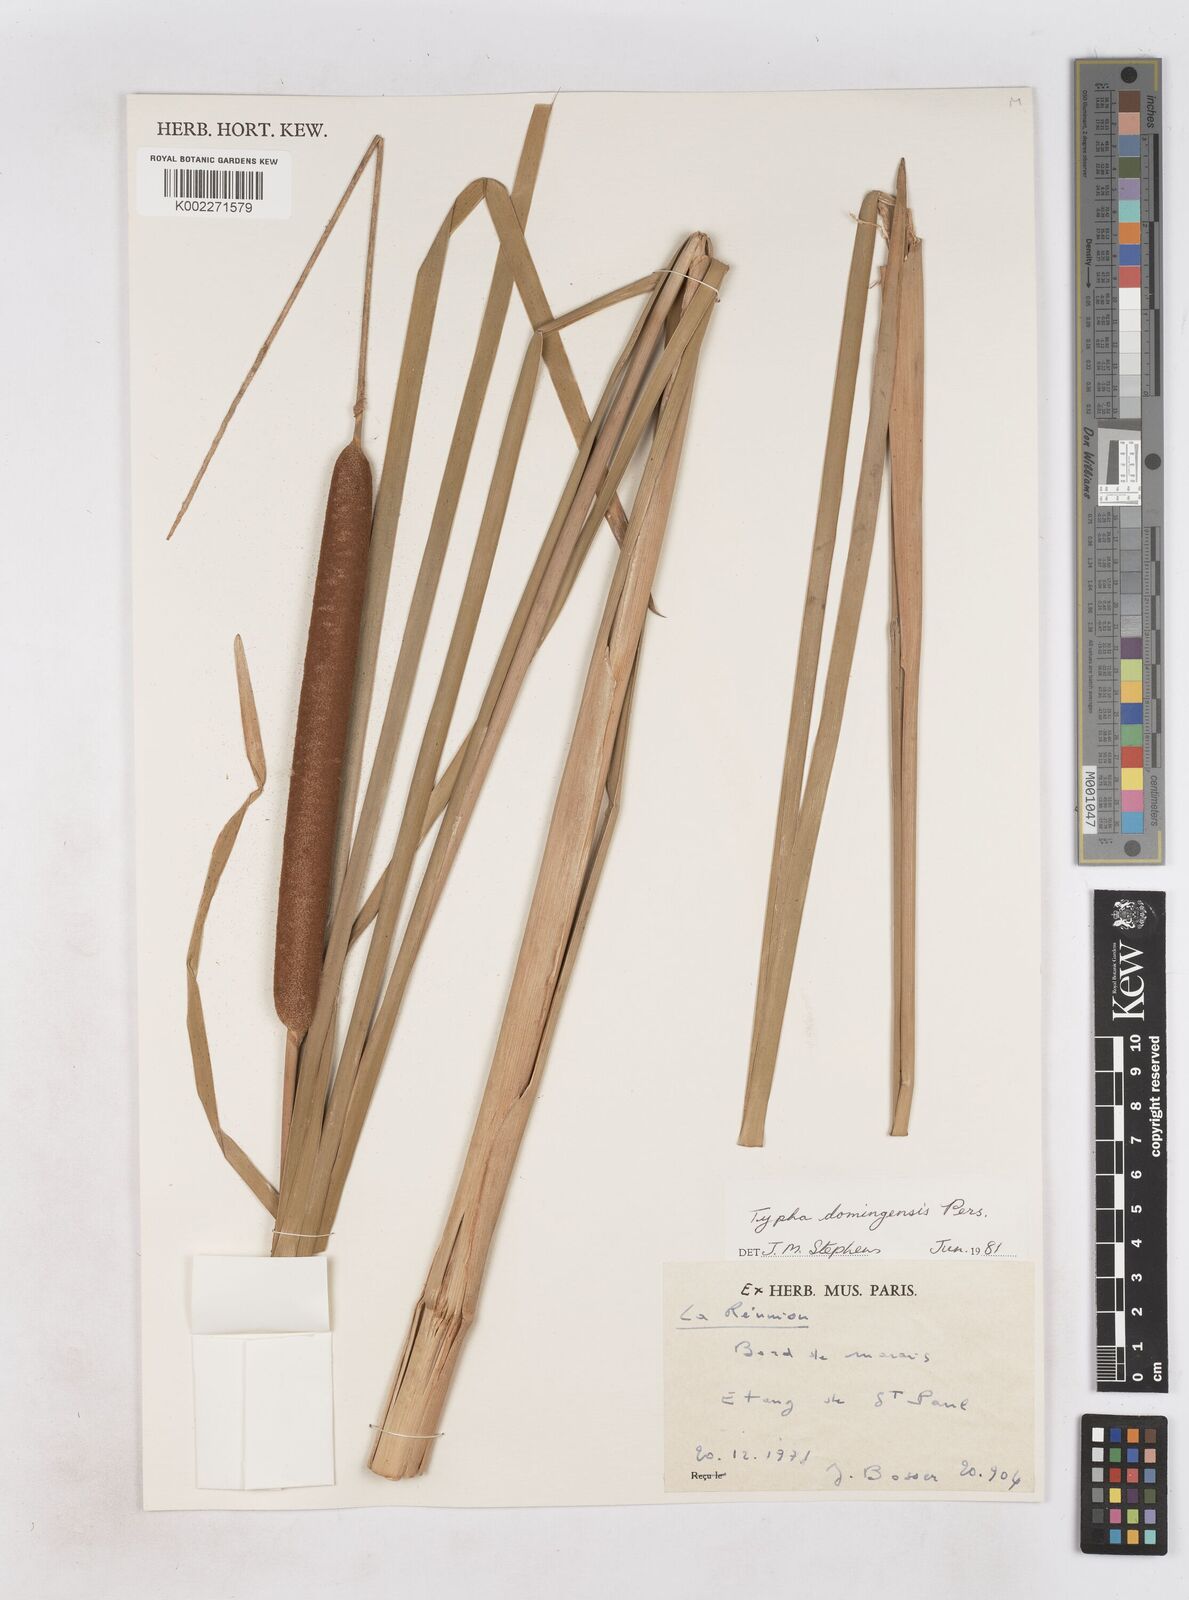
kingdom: Plantae
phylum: Tracheophyta
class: Liliopsida
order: Poales
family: Typhaceae
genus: Typha
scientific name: Typha domingensis
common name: Southern cattail
